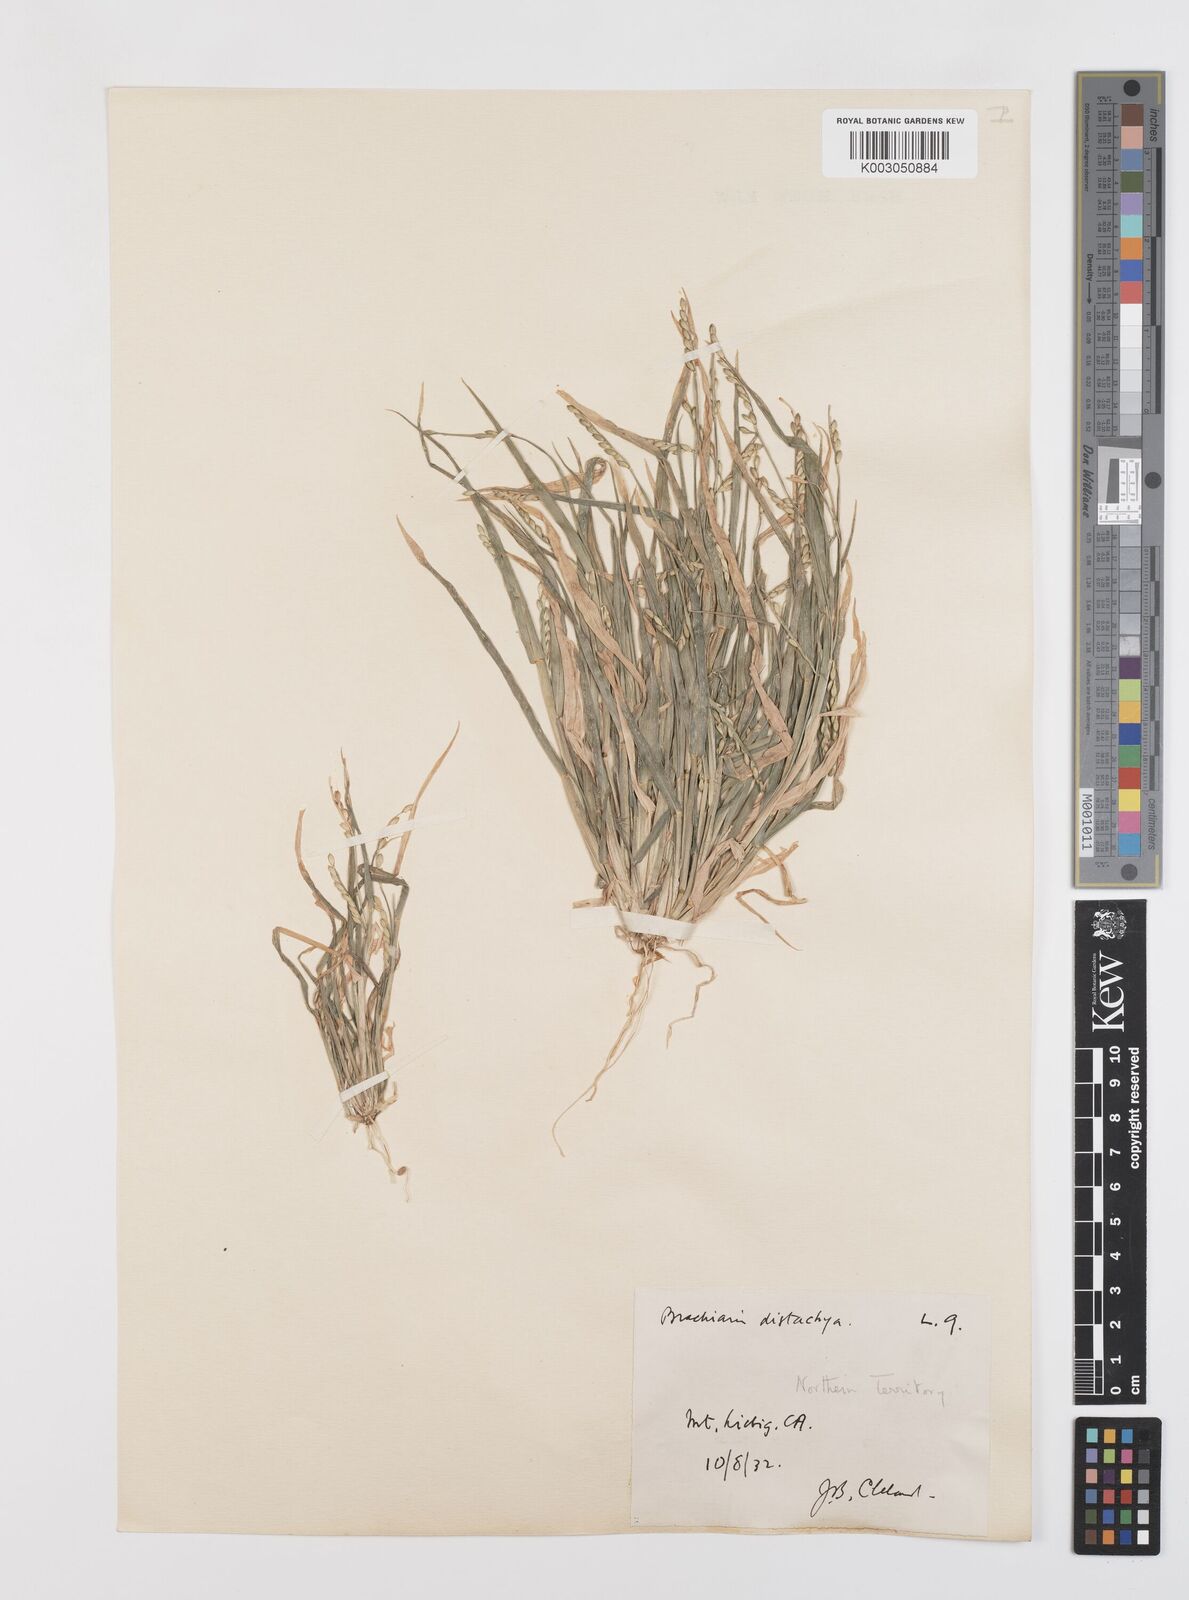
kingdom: Plantae
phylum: Tracheophyta
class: Liliopsida
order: Poales
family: Poaceae
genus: Urochloa
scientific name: Urochloa subquadripara
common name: Armgrass millet
